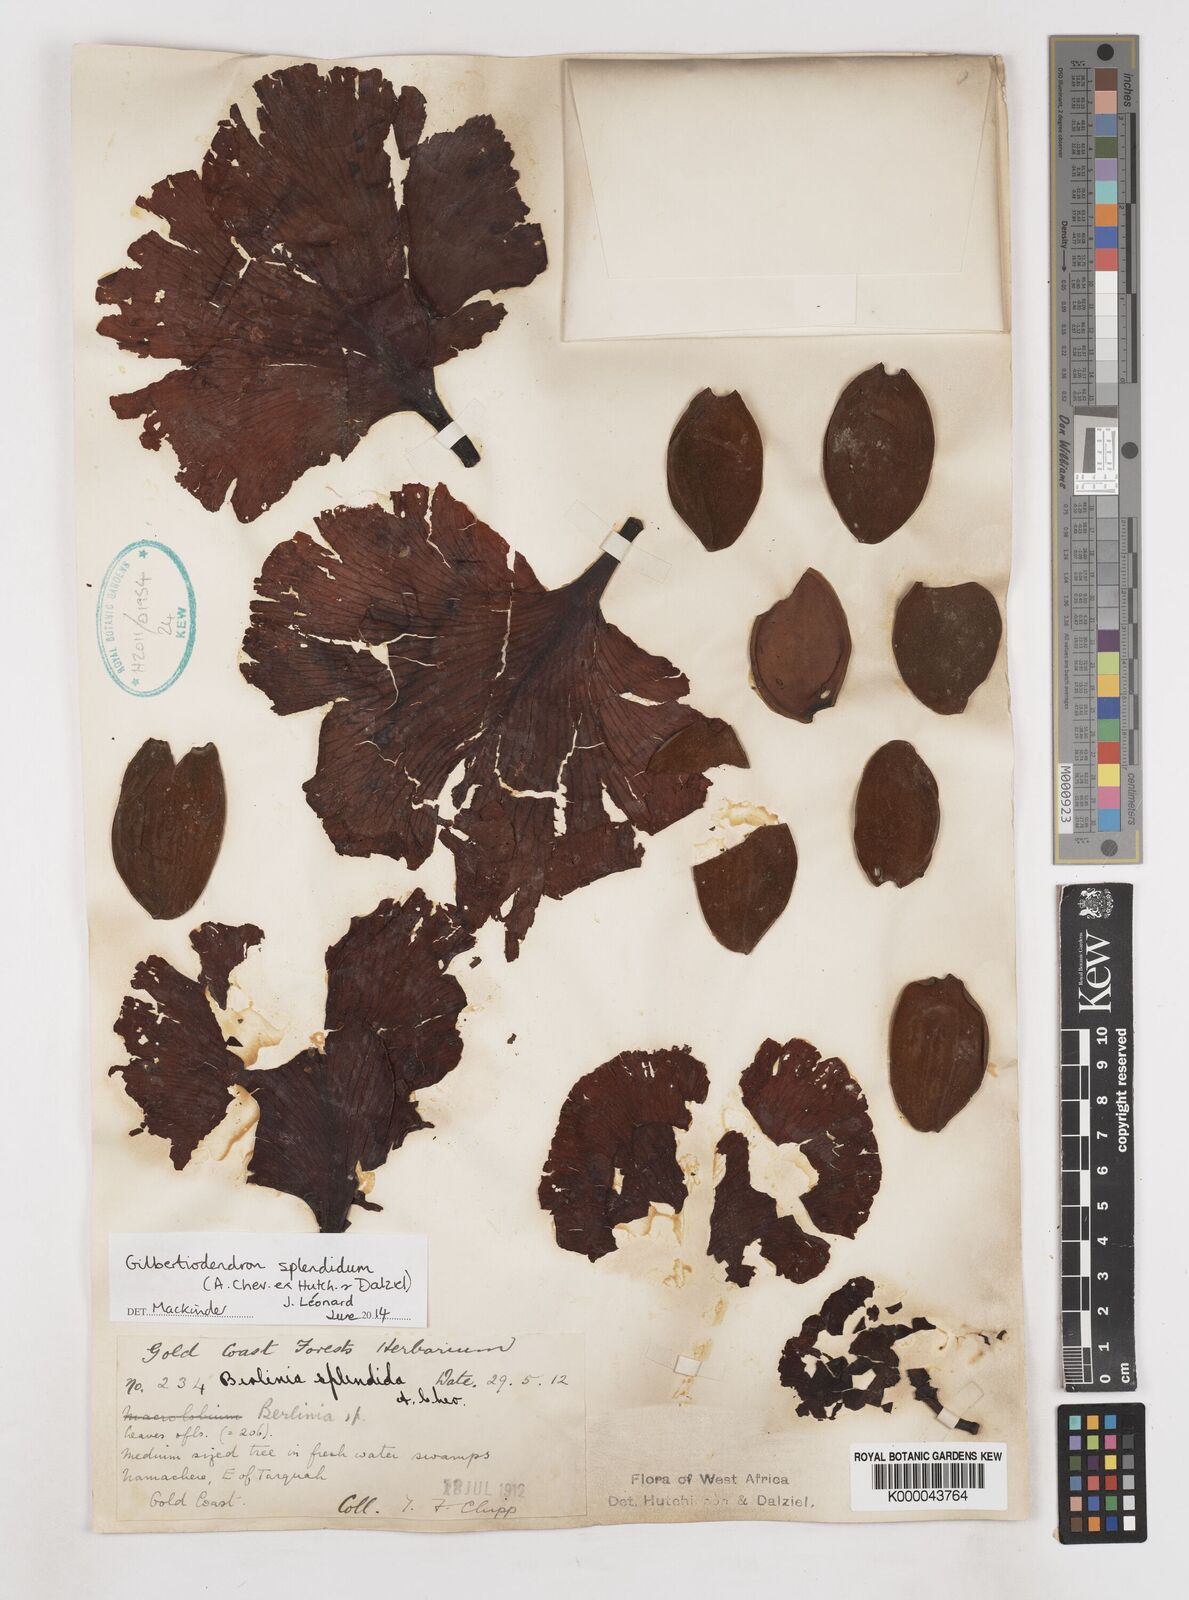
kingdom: Plantae
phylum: Tracheophyta
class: Magnoliopsida
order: Fabales
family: Fabaceae
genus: Gilbertiodendron
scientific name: Gilbertiodendron
